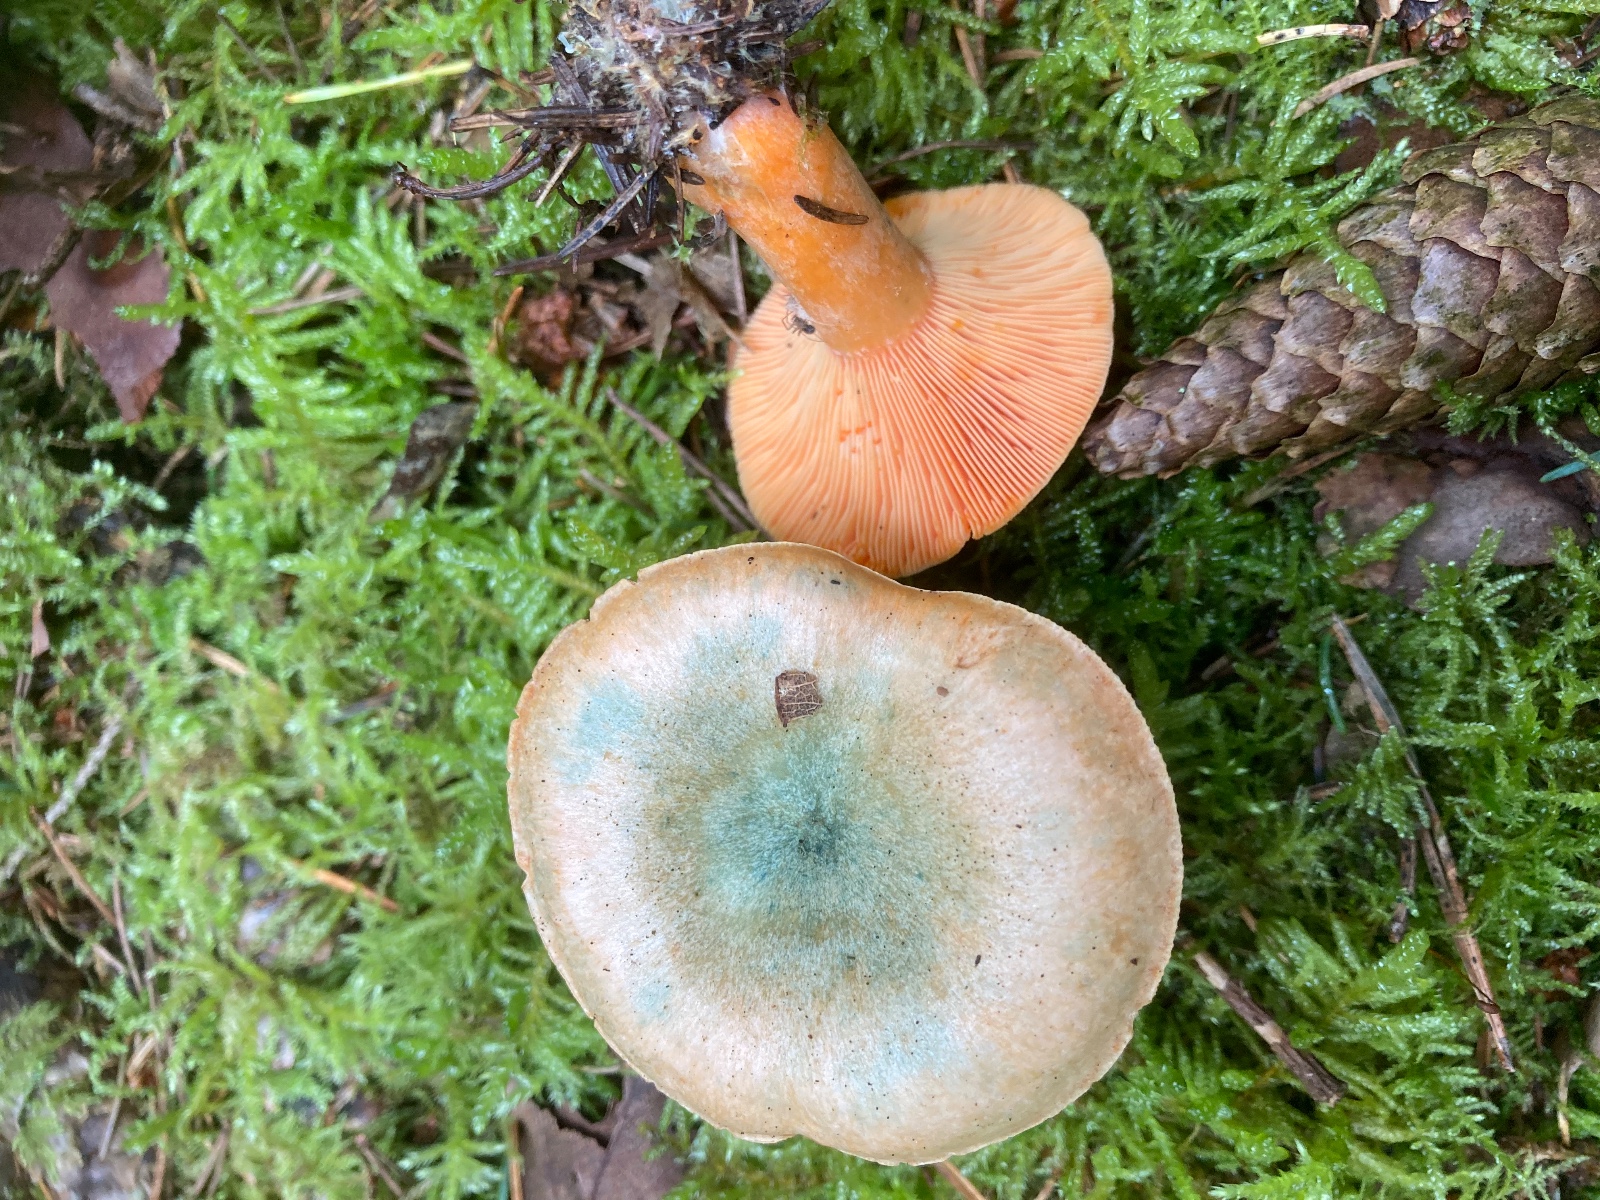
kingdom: Fungi
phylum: Basidiomycota
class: Agaricomycetes
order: Russulales
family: Russulaceae
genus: Lactarius
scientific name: Lactarius deterrimus
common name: gran-mælkehat
